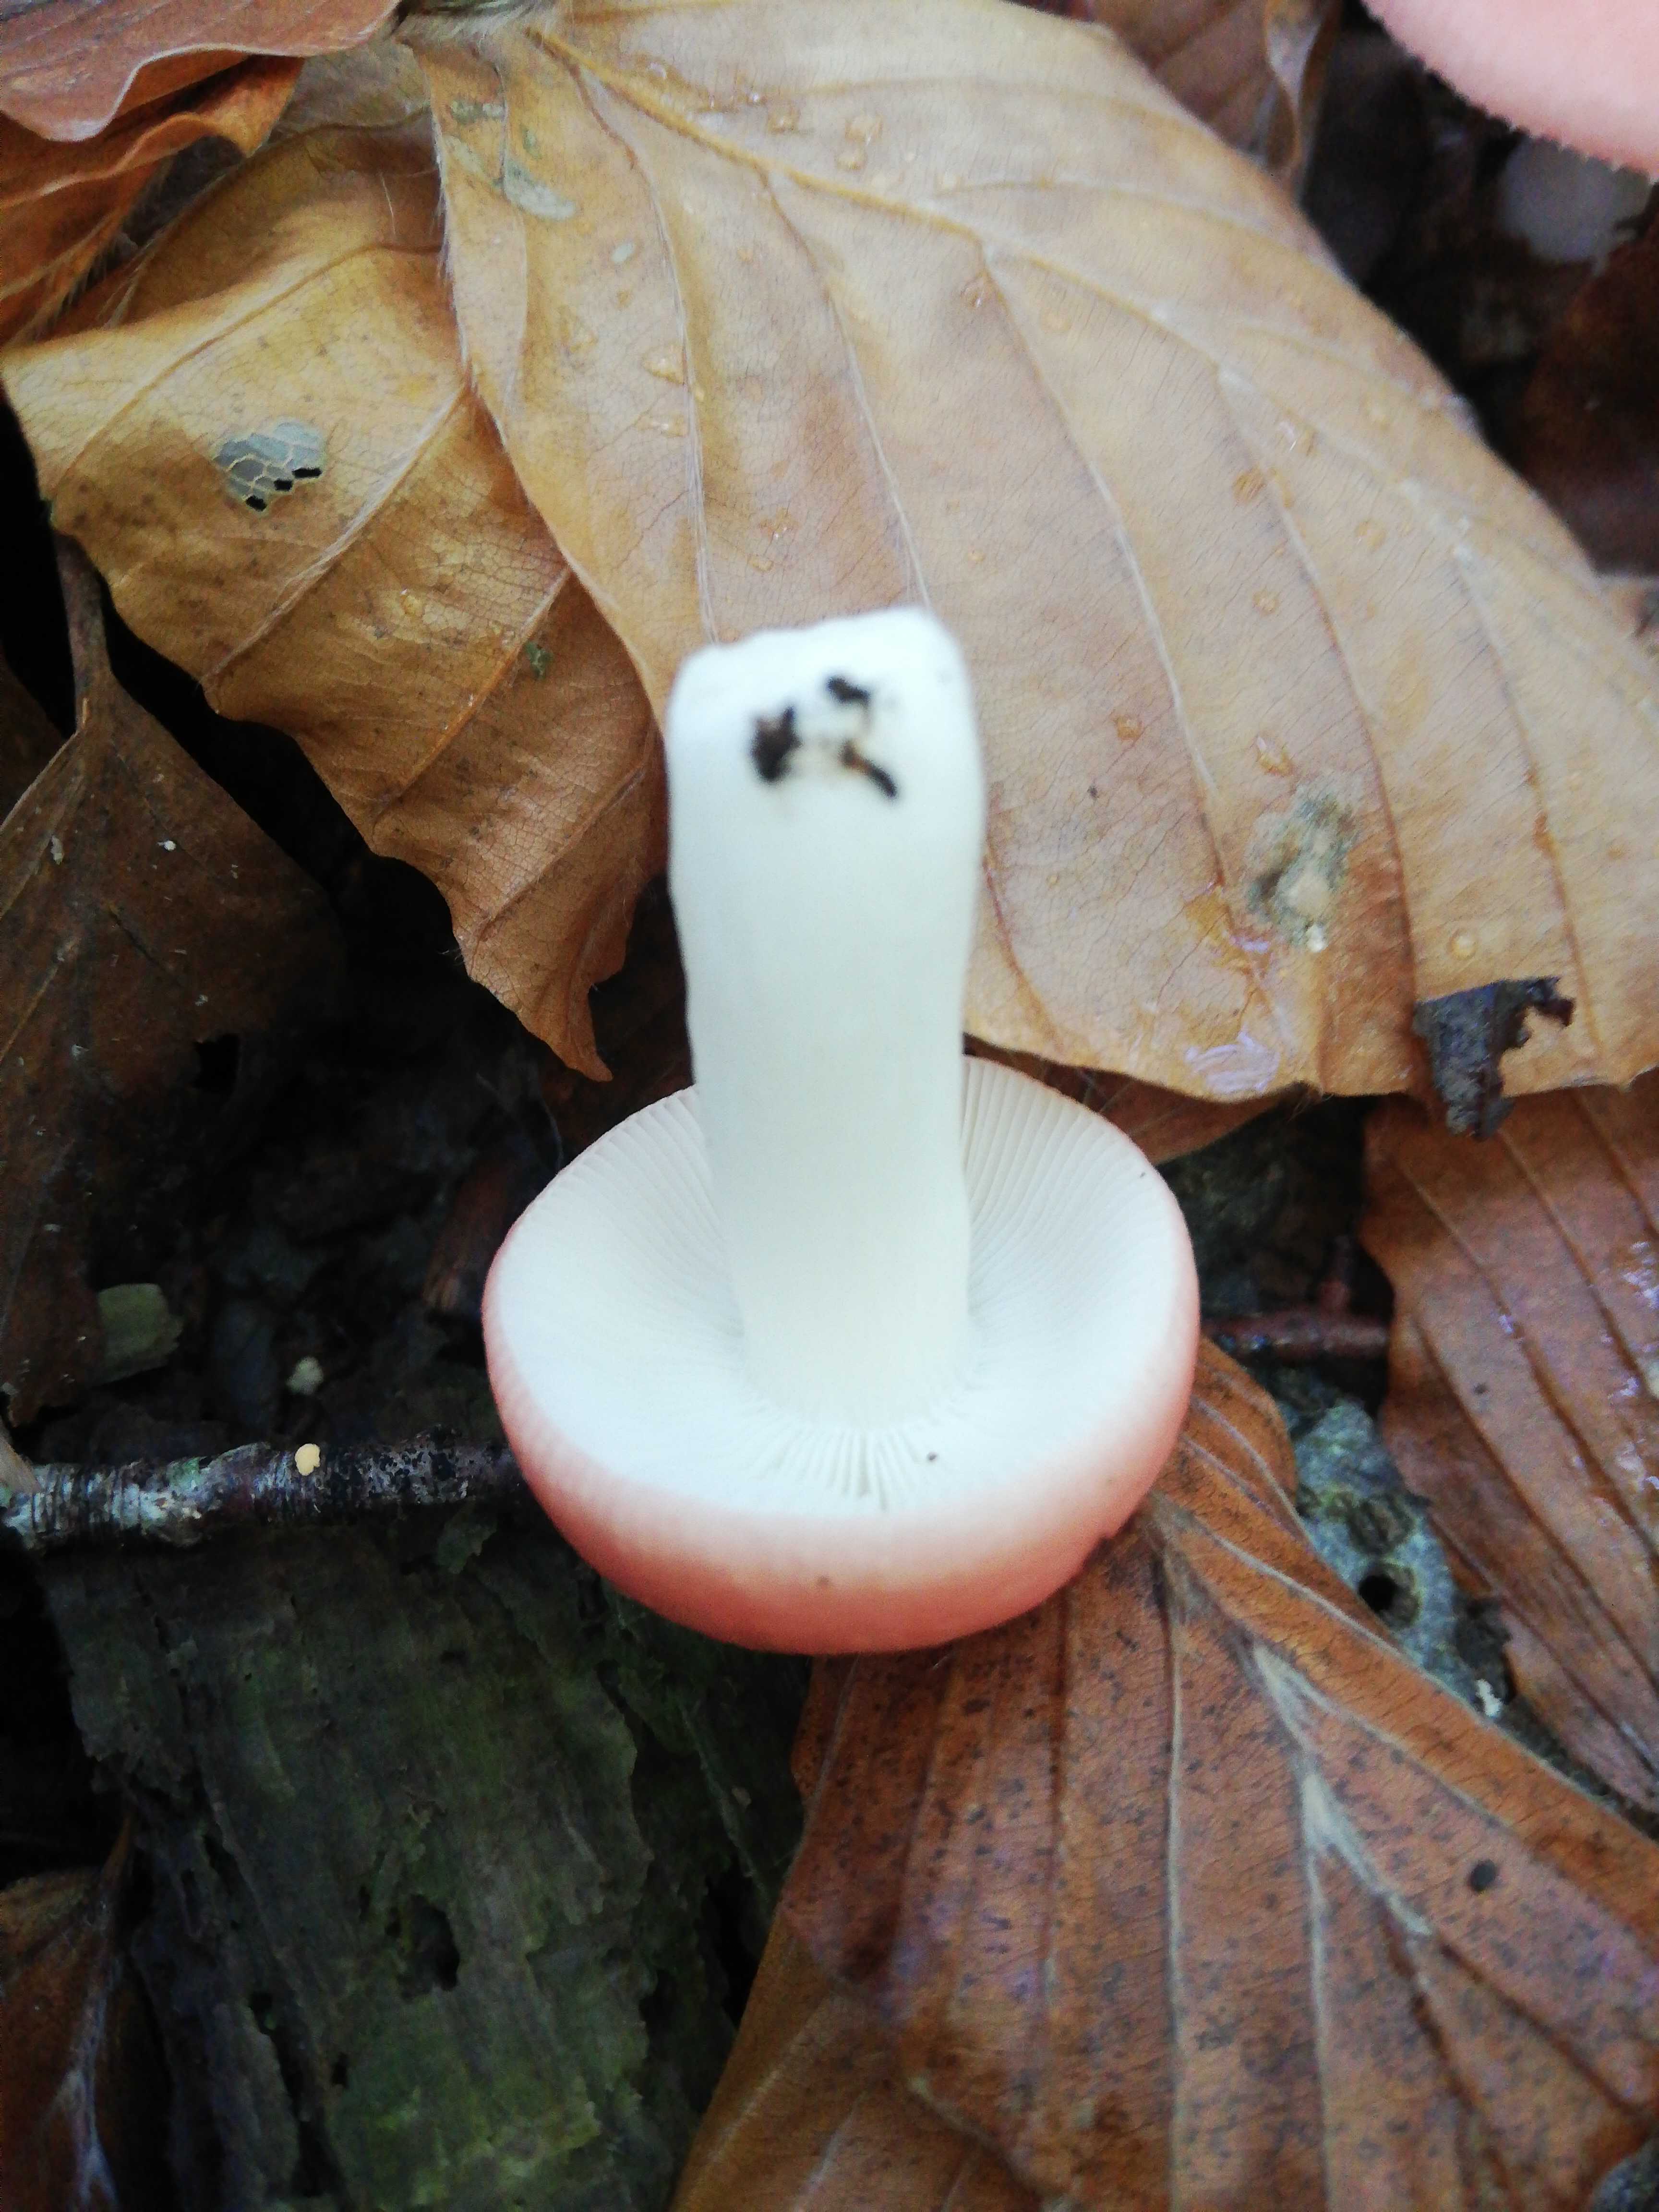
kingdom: Fungi
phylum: Basidiomycota
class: Agaricomycetes
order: Russulales
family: Russulaceae
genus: Russula
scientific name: Russula
